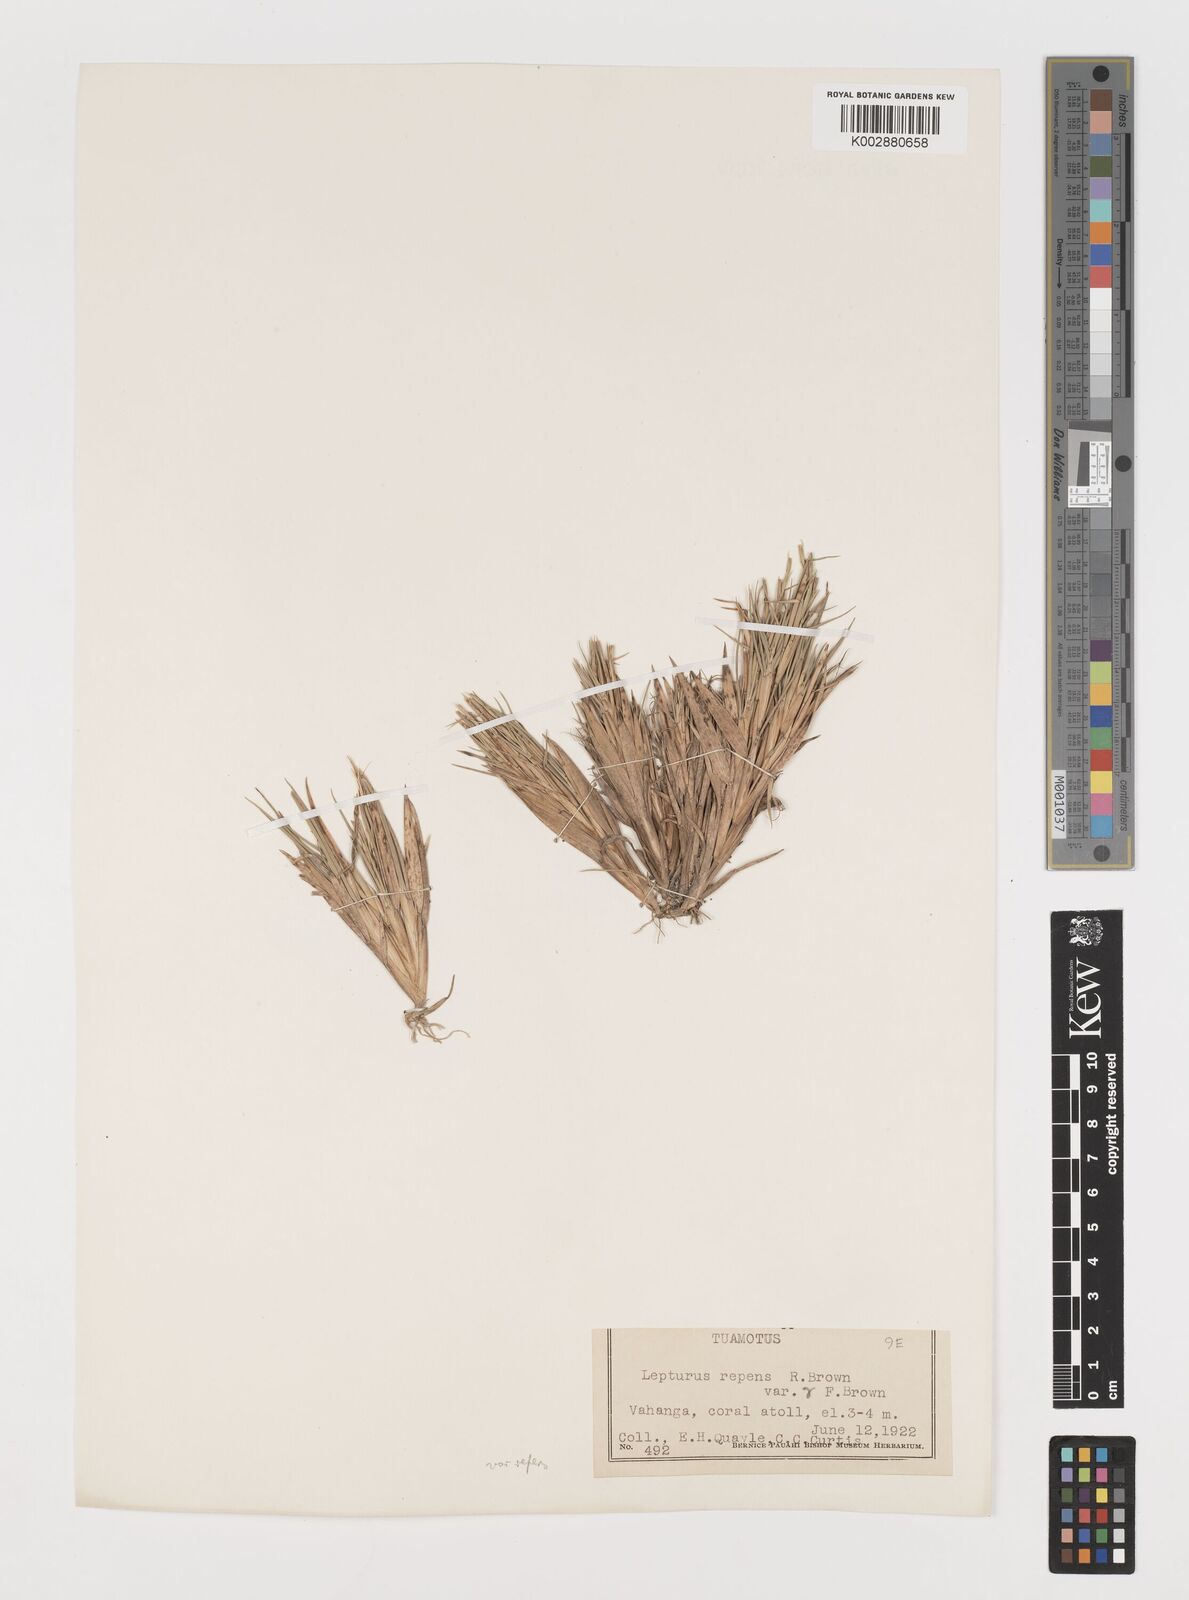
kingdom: Plantae
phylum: Tracheophyta
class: Liliopsida
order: Poales
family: Poaceae
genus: Lepturus
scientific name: Lepturus repens
